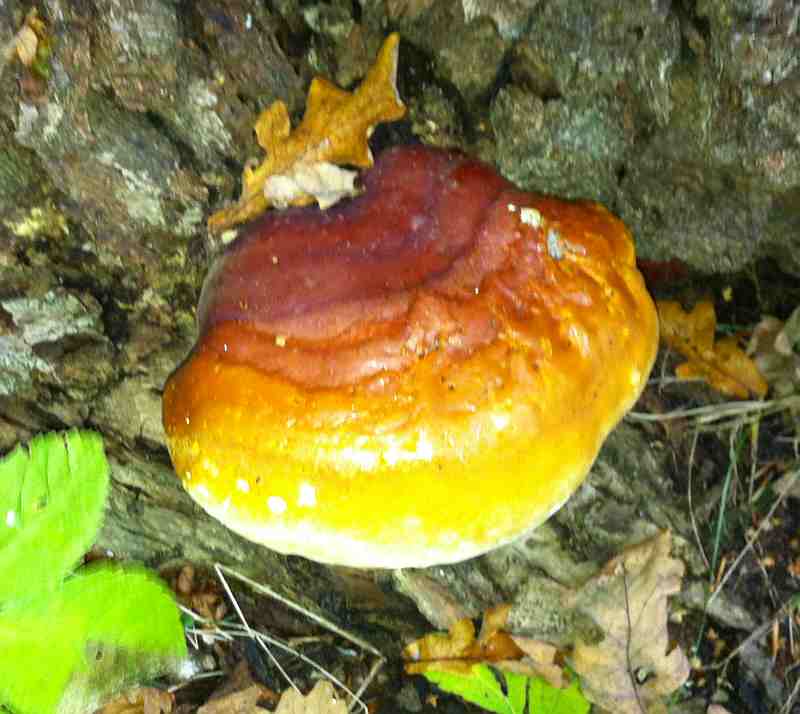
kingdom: Fungi
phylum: Basidiomycota
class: Agaricomycetes
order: Polyporales
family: Polyporaceae
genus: Ganoderma
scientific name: Ganoderma resinaceum
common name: gyldenbrun lakporesvamp
